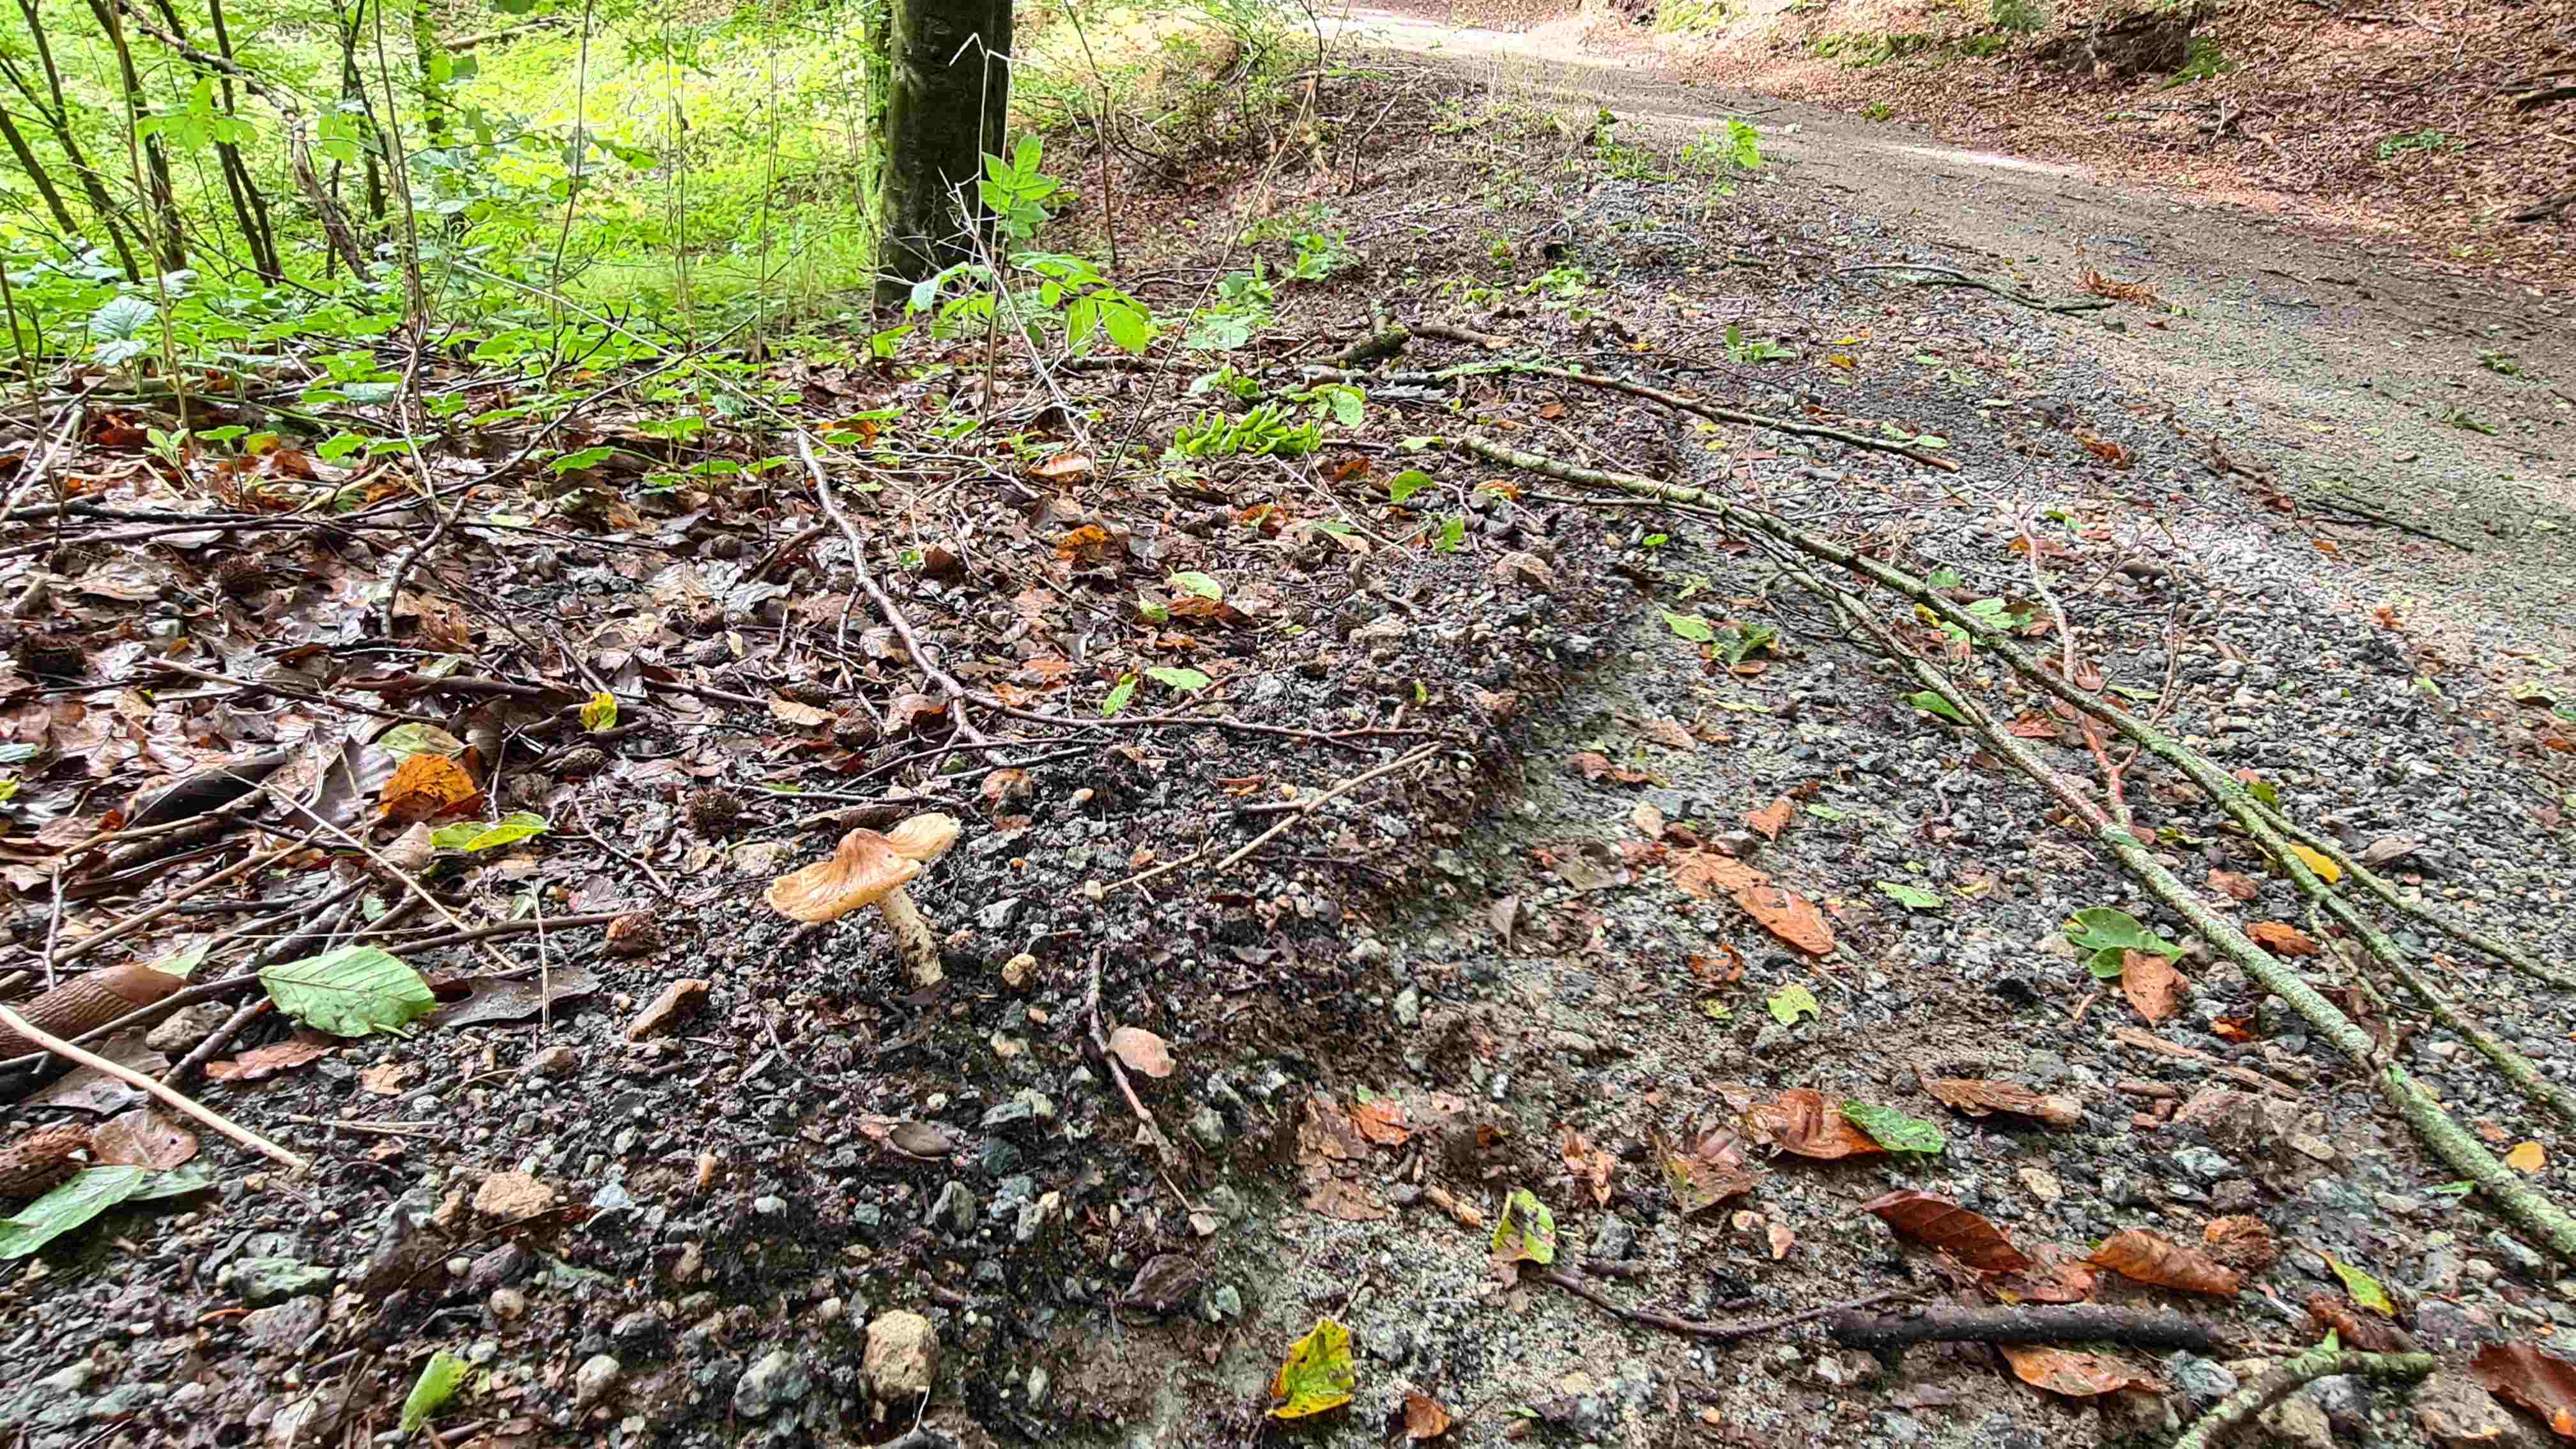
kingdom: Fungi
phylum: Basidiomycota
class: Agaricomycetes
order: Agaricales
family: Inocybaceae
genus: Pseudosperma
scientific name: Pseudosperma
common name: trævlhat
